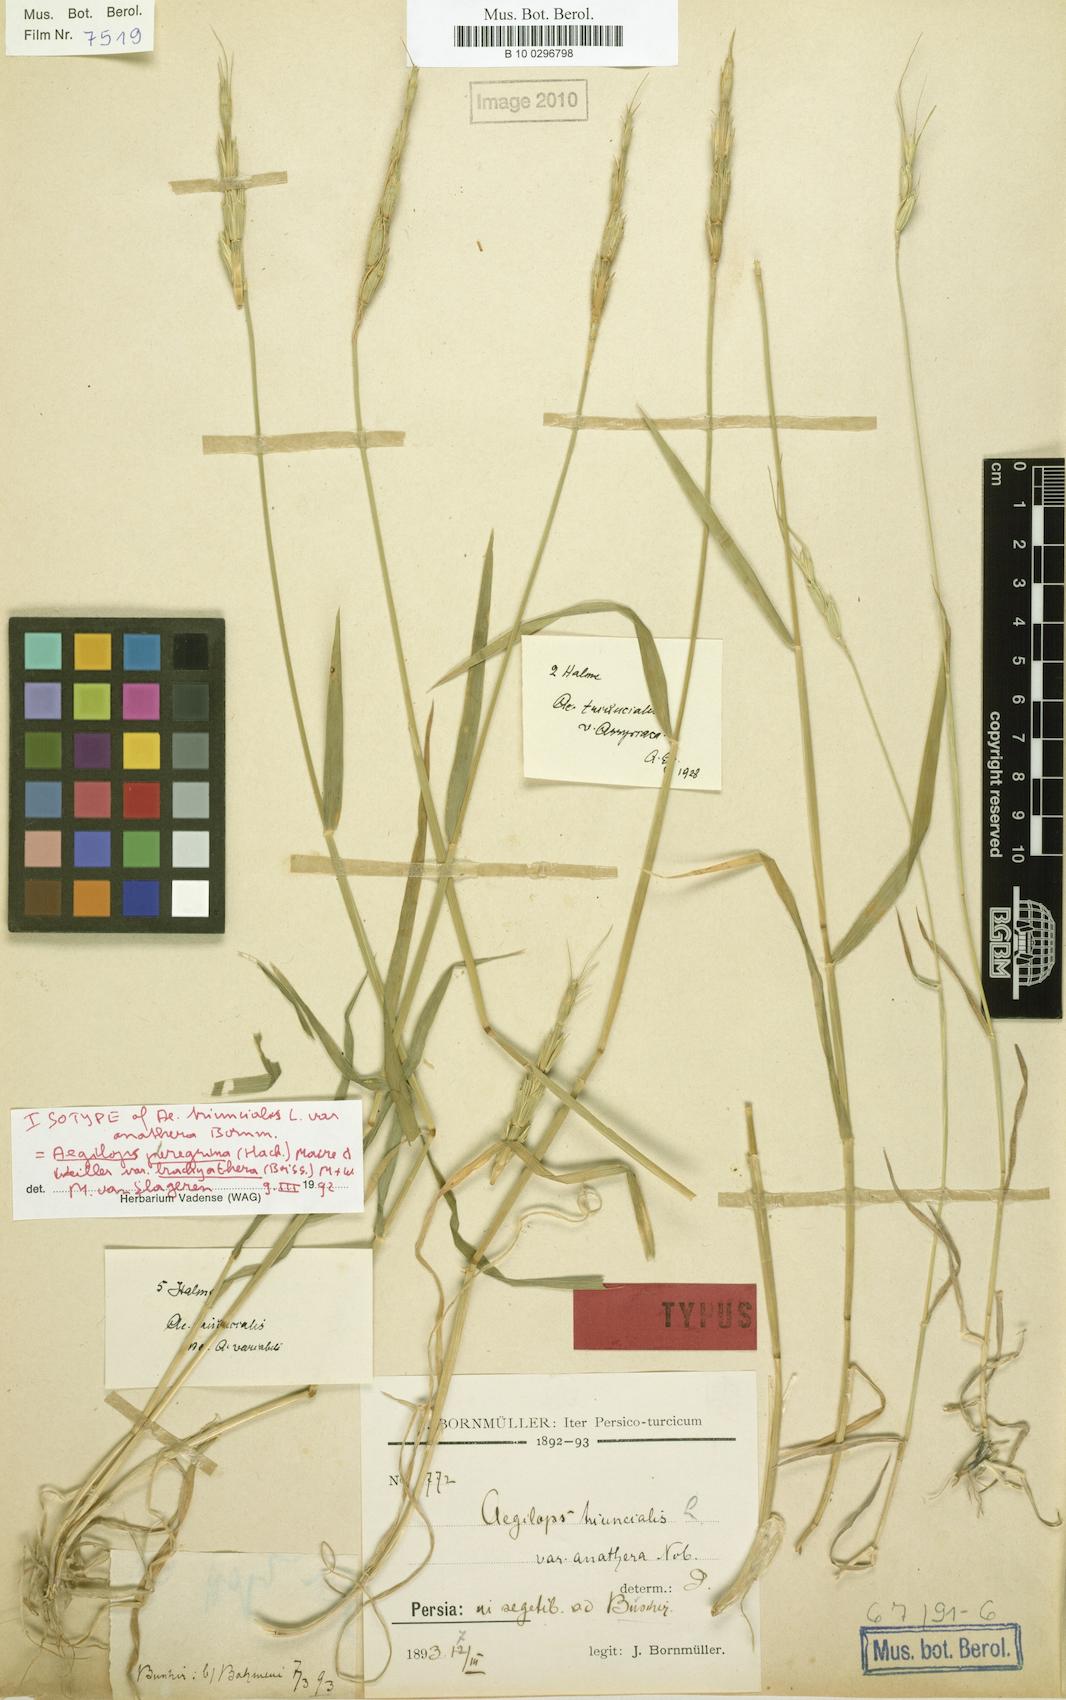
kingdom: Plantae
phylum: Tracheophyta
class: Liliopsida
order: Poales
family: Poaceae
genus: Aegilops
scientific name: Aegilops peregrina
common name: Goatgrass
